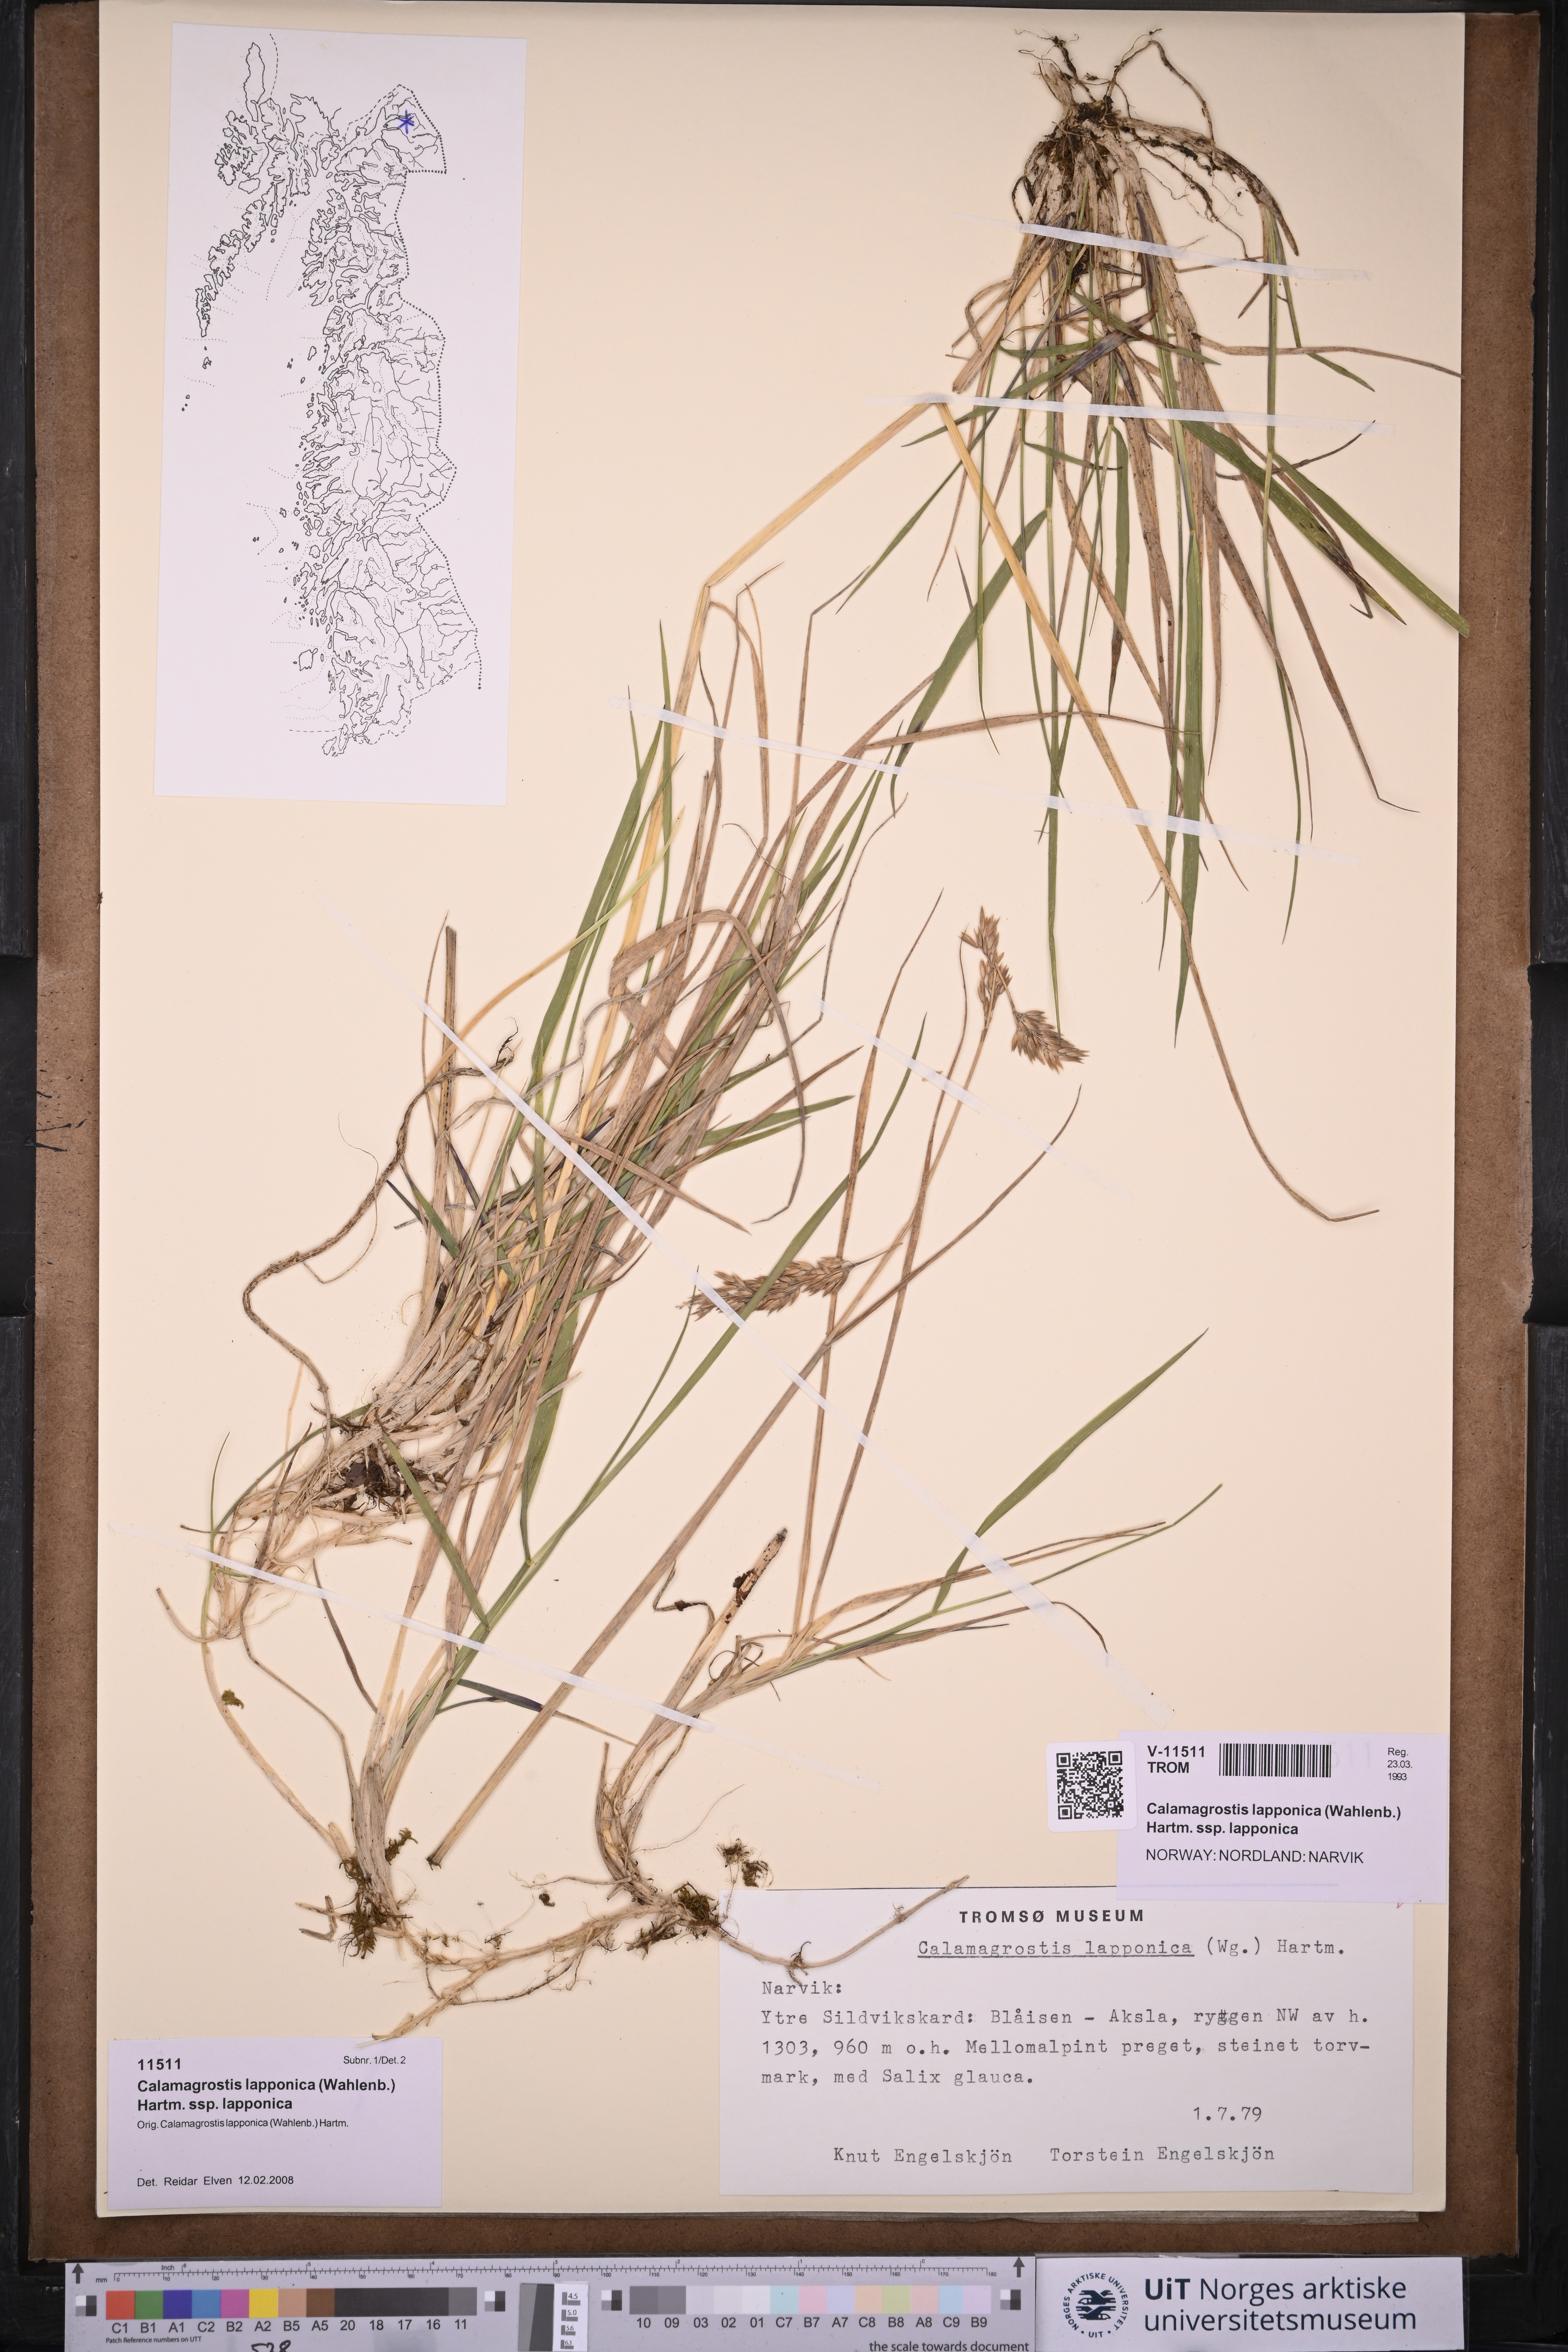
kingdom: Plantae
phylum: Tracheophyta
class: Liliopsida
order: Poales
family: Poaceae
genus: Calamagrostis
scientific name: Calamagrostis lapponica
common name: Lapland reedgrass
